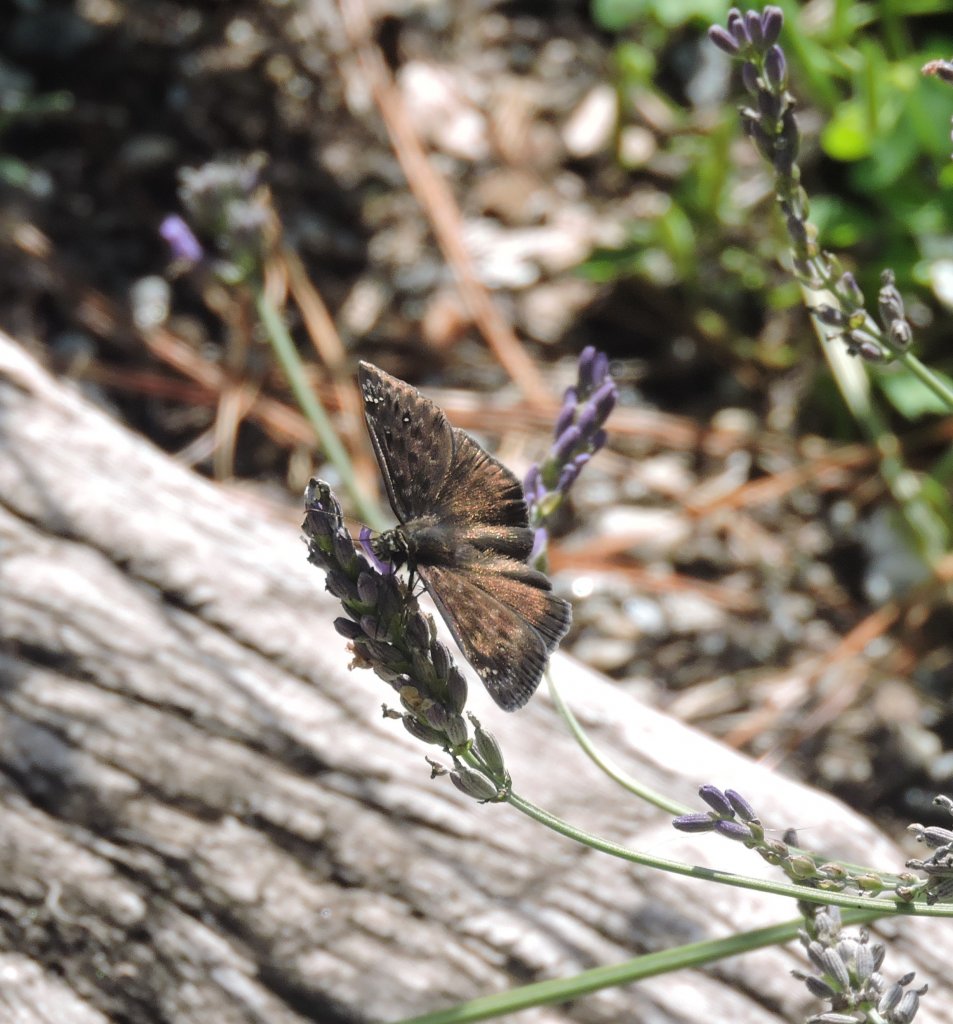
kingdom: Animalia
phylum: Arthropoda
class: Insecta
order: Lepidoptera
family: Hesperiidae
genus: Gesta
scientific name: Gesta
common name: Horace's Duskywing
